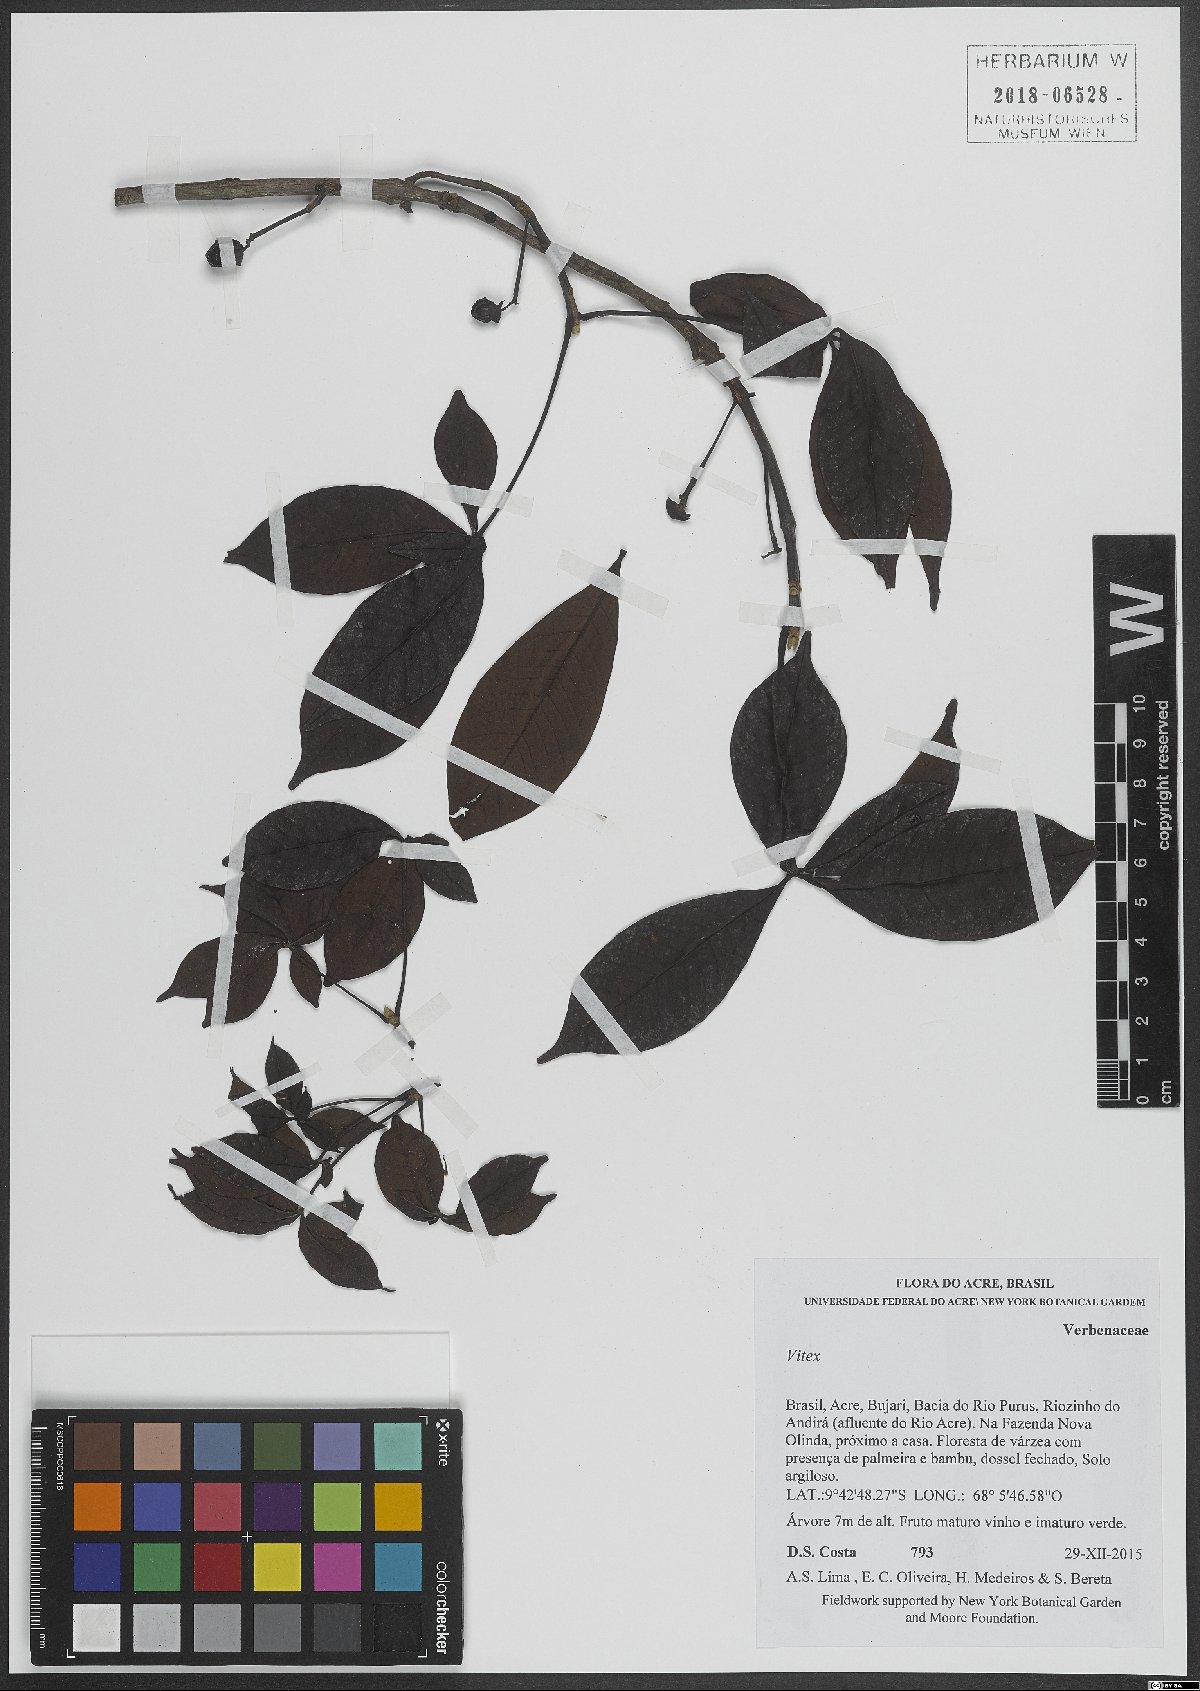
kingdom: Plantae
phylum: Tracheophyta
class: Magnoliopsida
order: Lamiales
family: Lamiaceae
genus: Vitex
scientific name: Vitex
